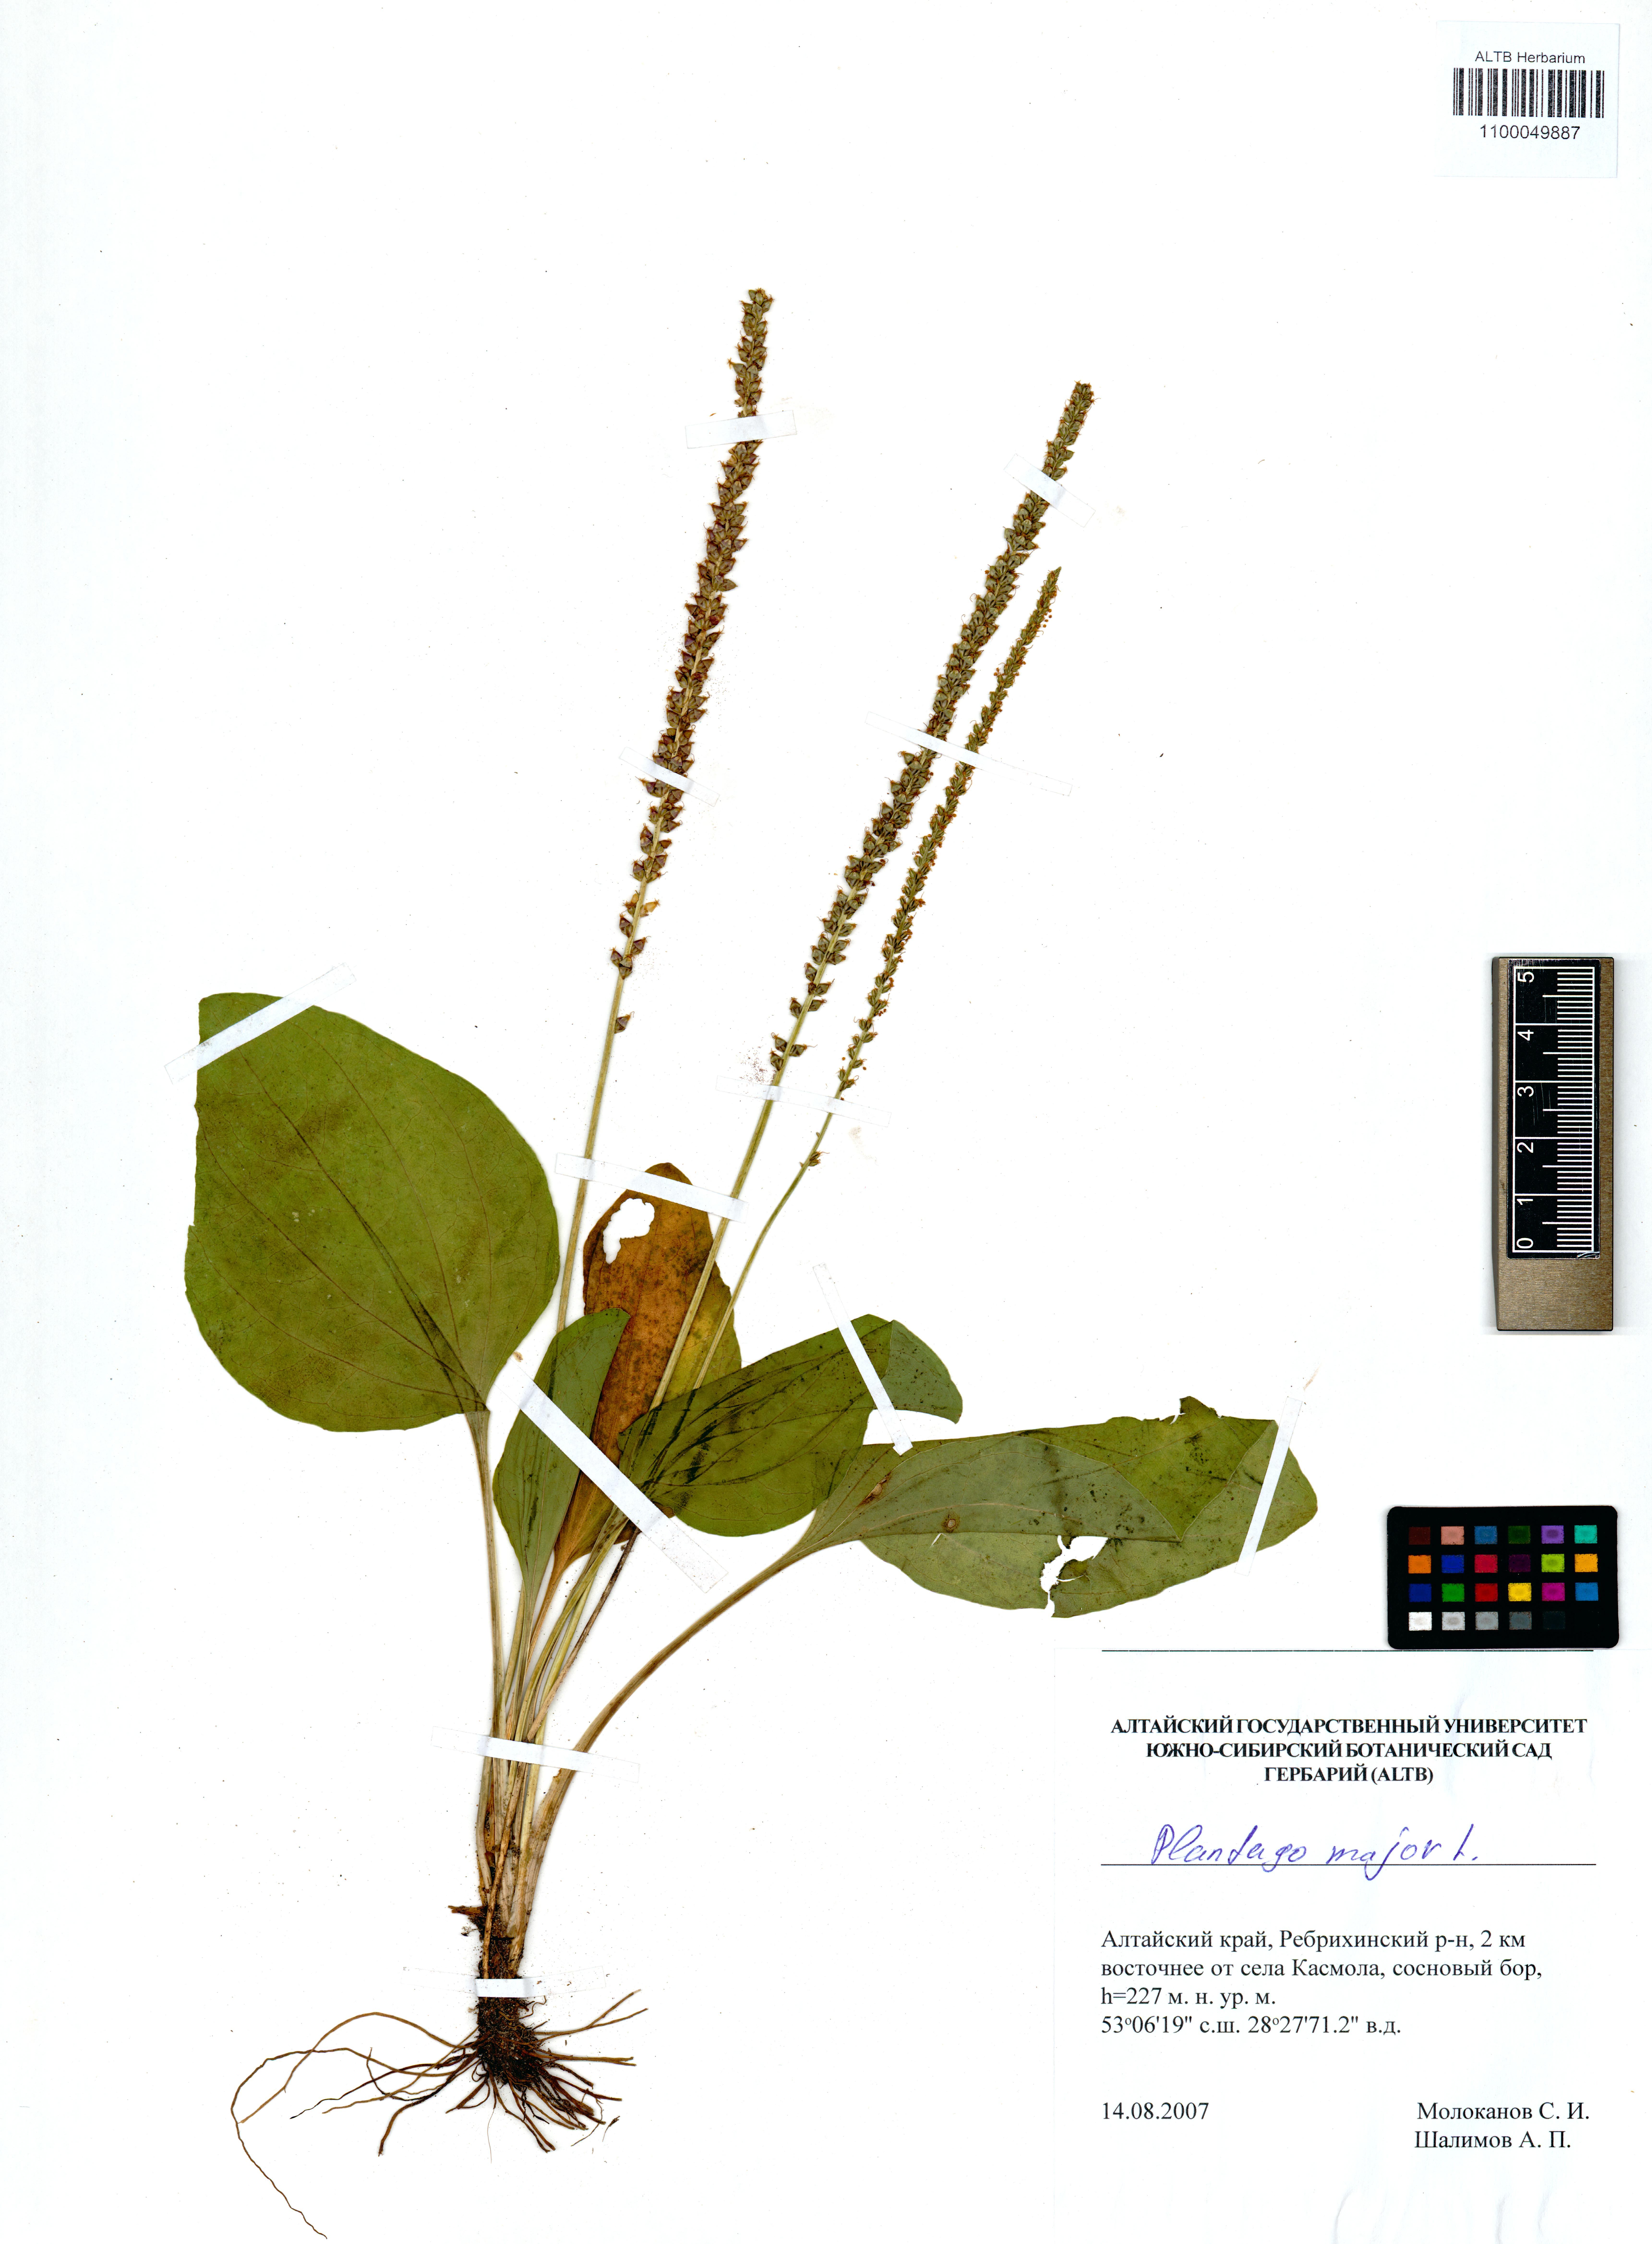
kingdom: Plantae
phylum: Tracheophyta
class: Magnoliopsida
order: Lamiales
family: Plantaginaceae
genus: Plantago
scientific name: Plantago major
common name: Common plantain
